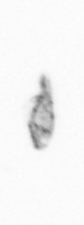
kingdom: Animalia
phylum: Arthropoda
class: Copepoda
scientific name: Copepoda
